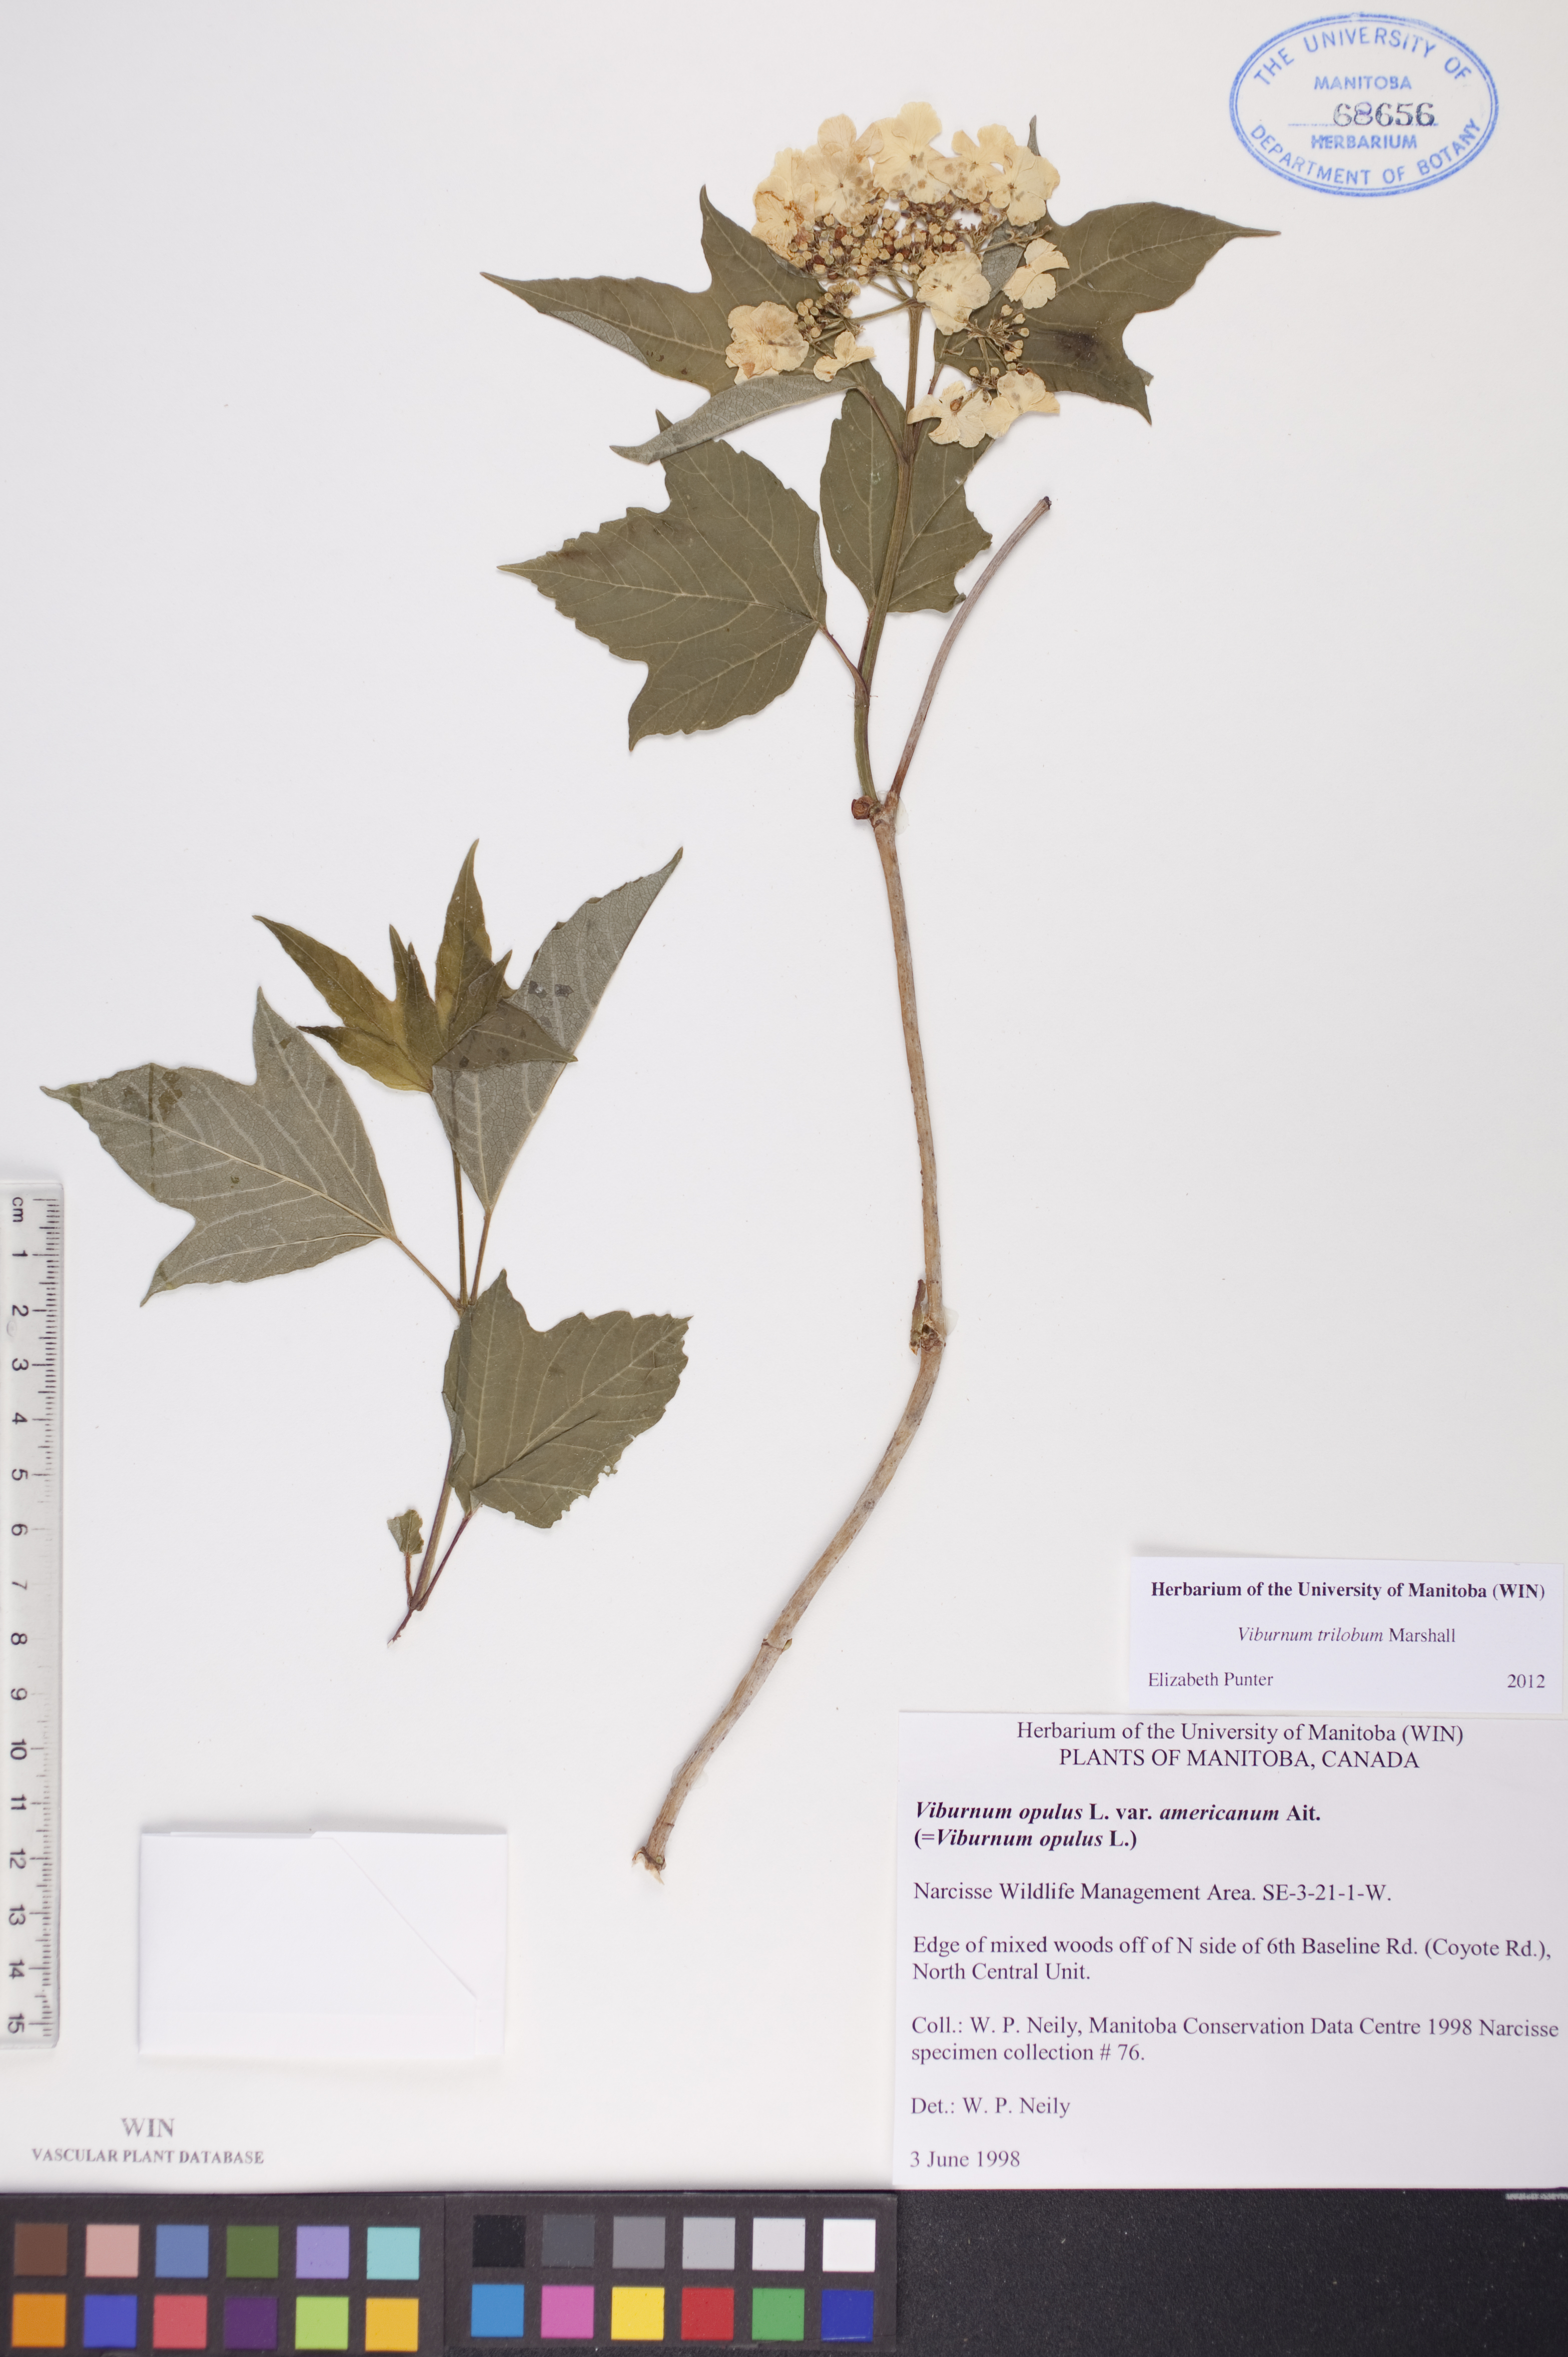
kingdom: Plantae
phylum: Tracheophyta
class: Magnoliopsida
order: Dipsacales
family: Viburnaceae
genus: Viburnum
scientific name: Viburnum trilobum
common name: American cranberrybush
